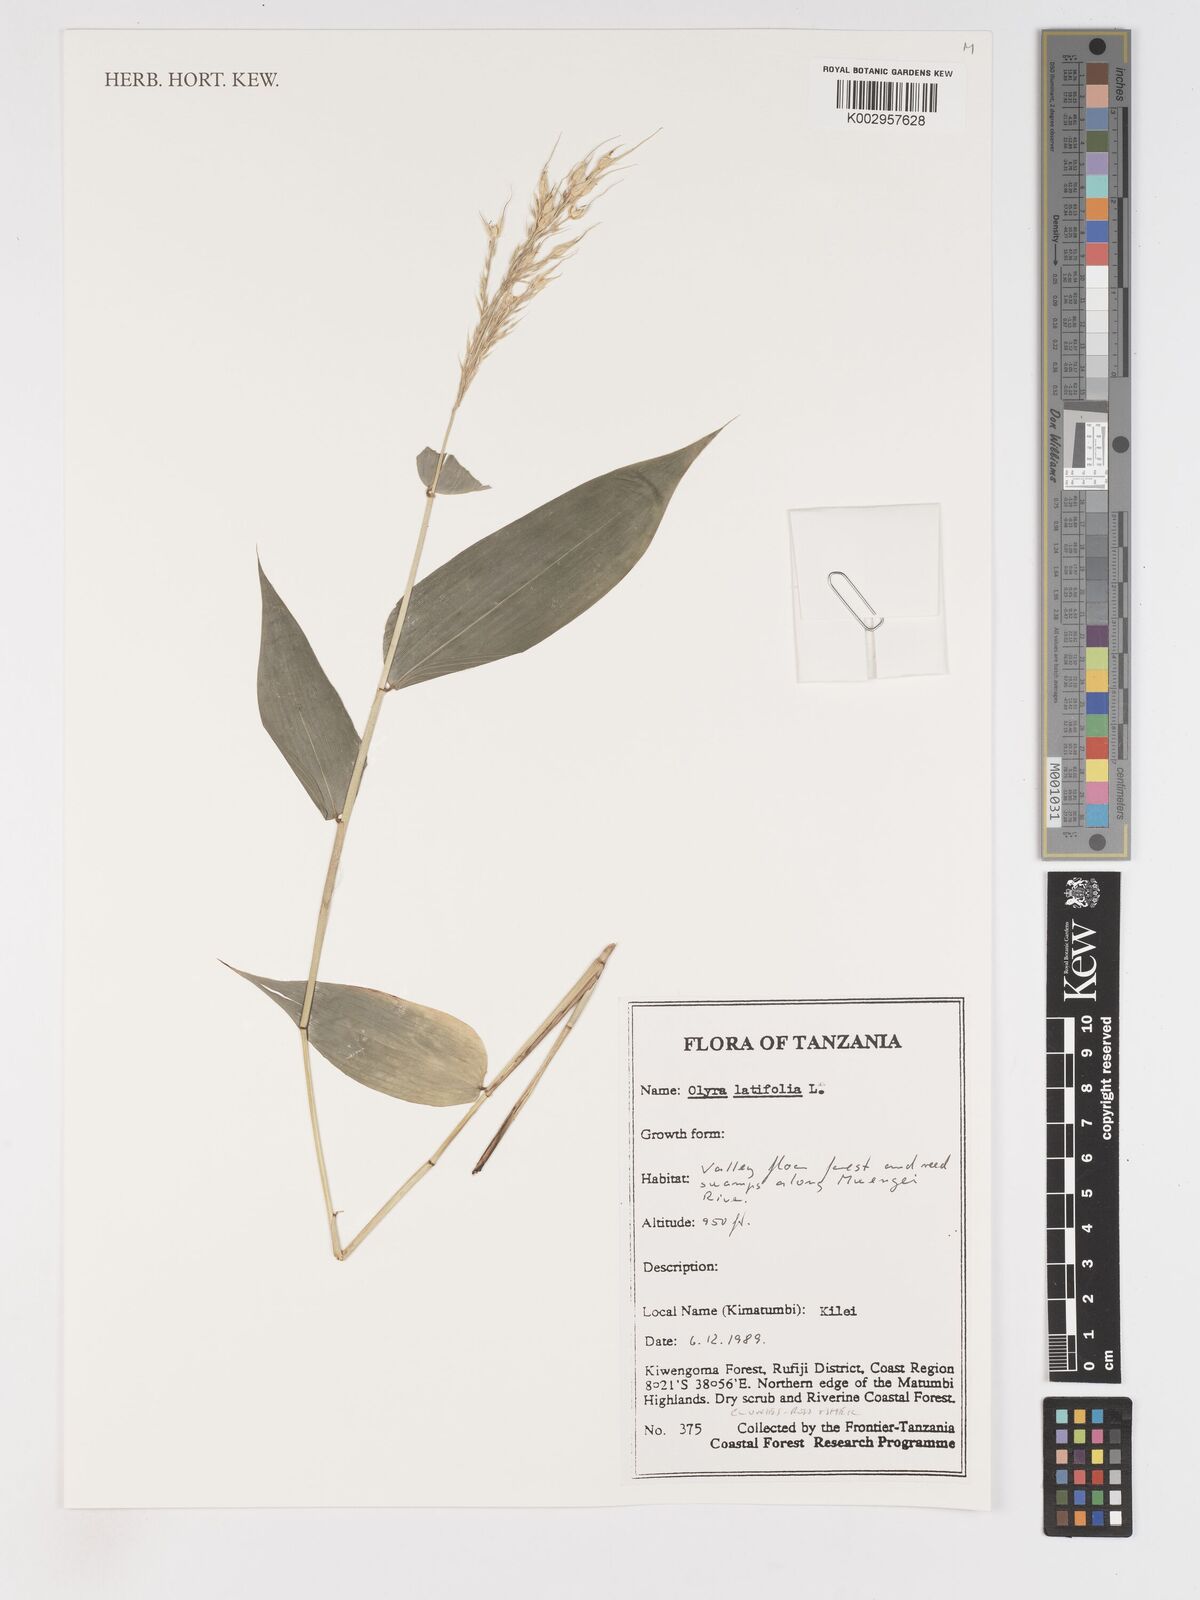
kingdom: Plantae
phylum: Tracheophyta
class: Liliopsida
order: Poales
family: Poaceae
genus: Olyra
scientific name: Olyra latifolia
